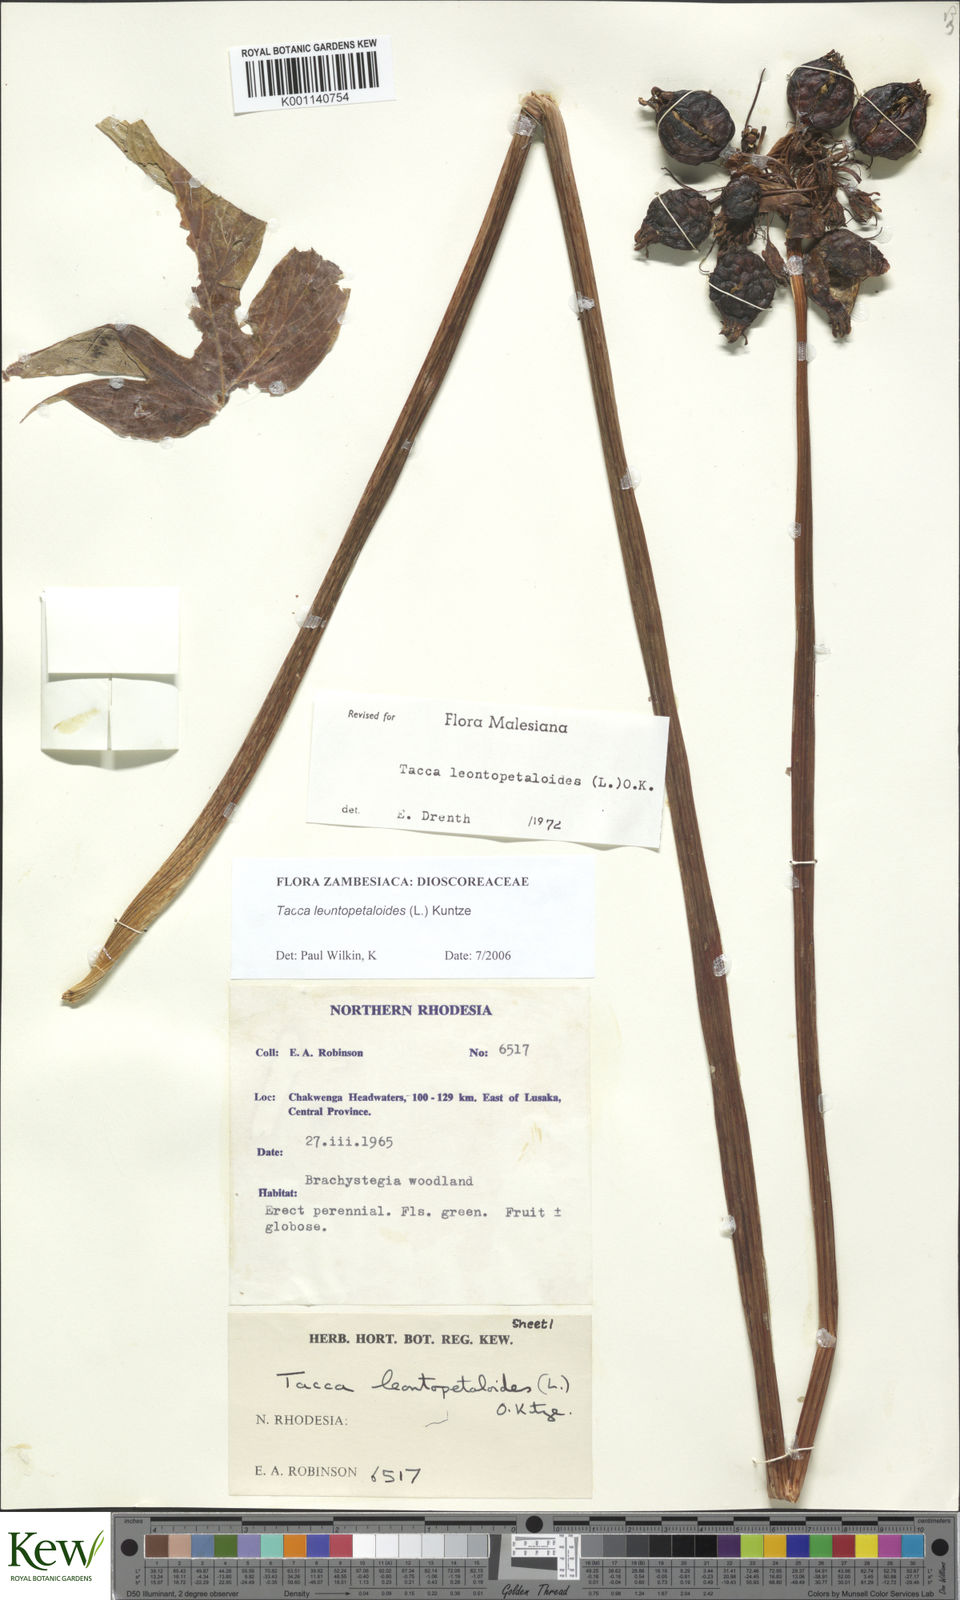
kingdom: Plantae
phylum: Tracheophyta
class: Liliopsida
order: Dioscoreales
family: Dioscoreaceae
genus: Tacca
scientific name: Tacca leontopetaloides
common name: Arrowroot
